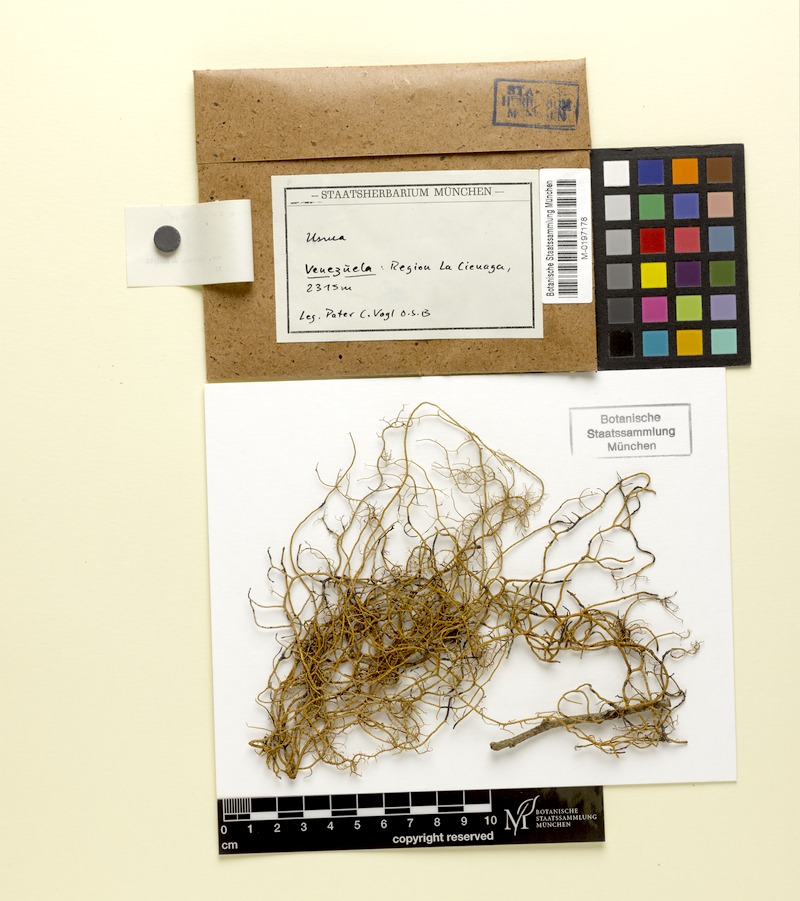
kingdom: Fungi
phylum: Ascomycota
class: Lecanoromycetes
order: Lecanorales
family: Parmeliaceae
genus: Usnea
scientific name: Usnea
